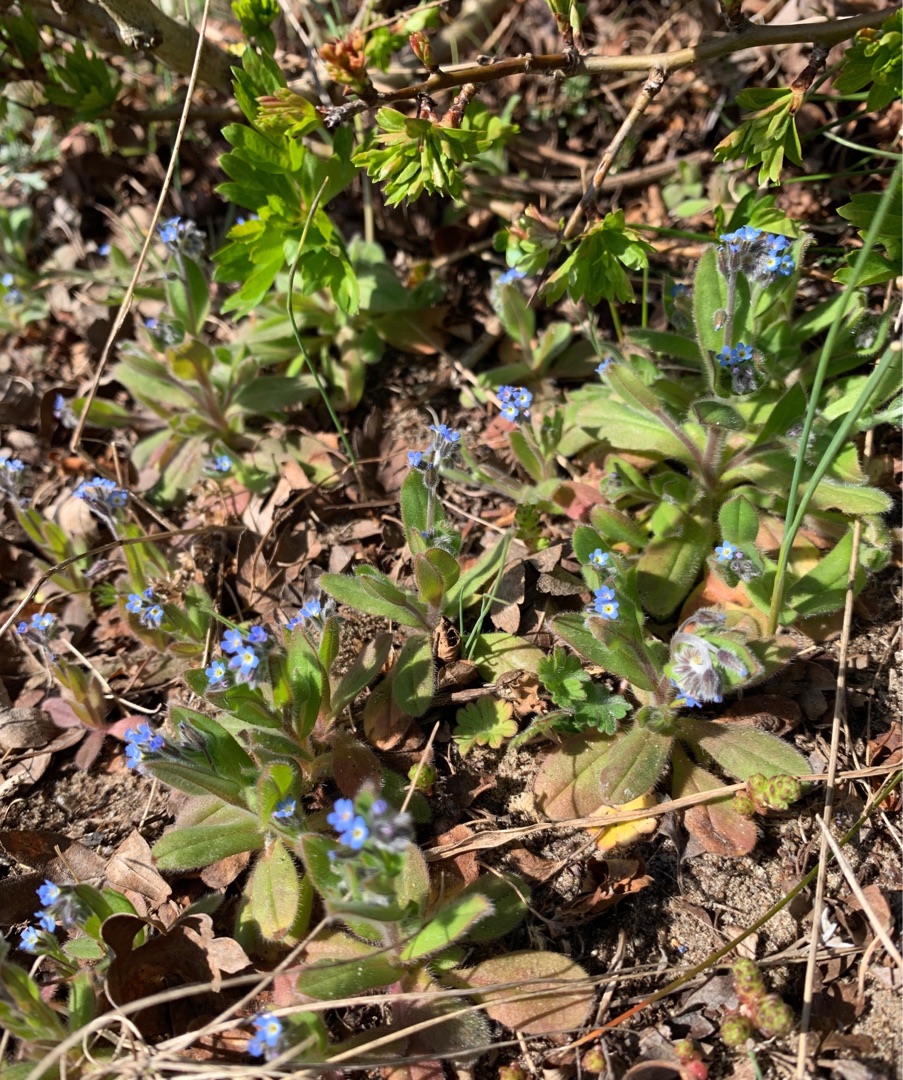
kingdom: Plantae
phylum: Tracheophyta
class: Magnoliopsida
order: Boraginales
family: Boraginaceae
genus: Myosotis
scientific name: Myosotis ramosissima
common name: Bakke-forglemmigej
